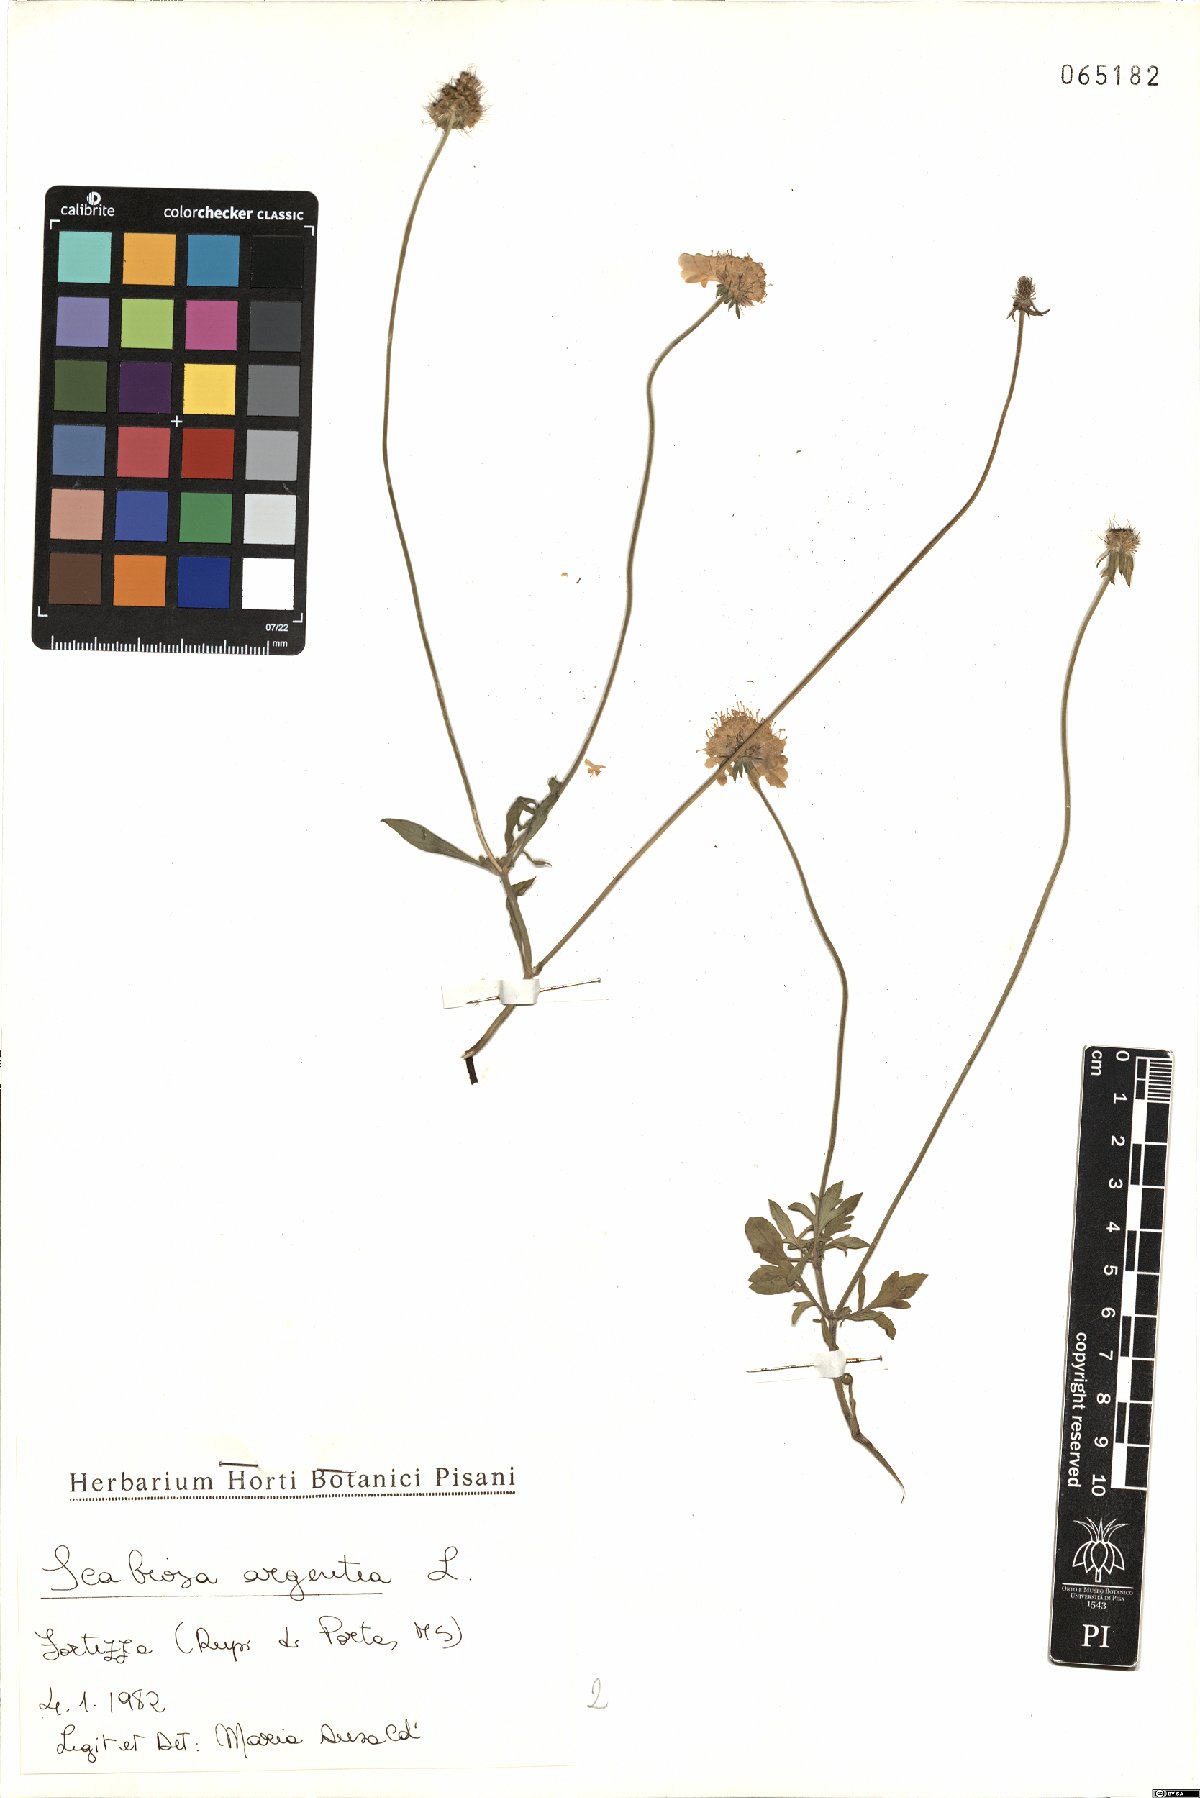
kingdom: Plantae
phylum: Tracheophyta
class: Magnoliopsida
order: Dipsacales
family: Caprifoliaceae
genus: Lomelosia
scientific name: Lomelosia argentea
